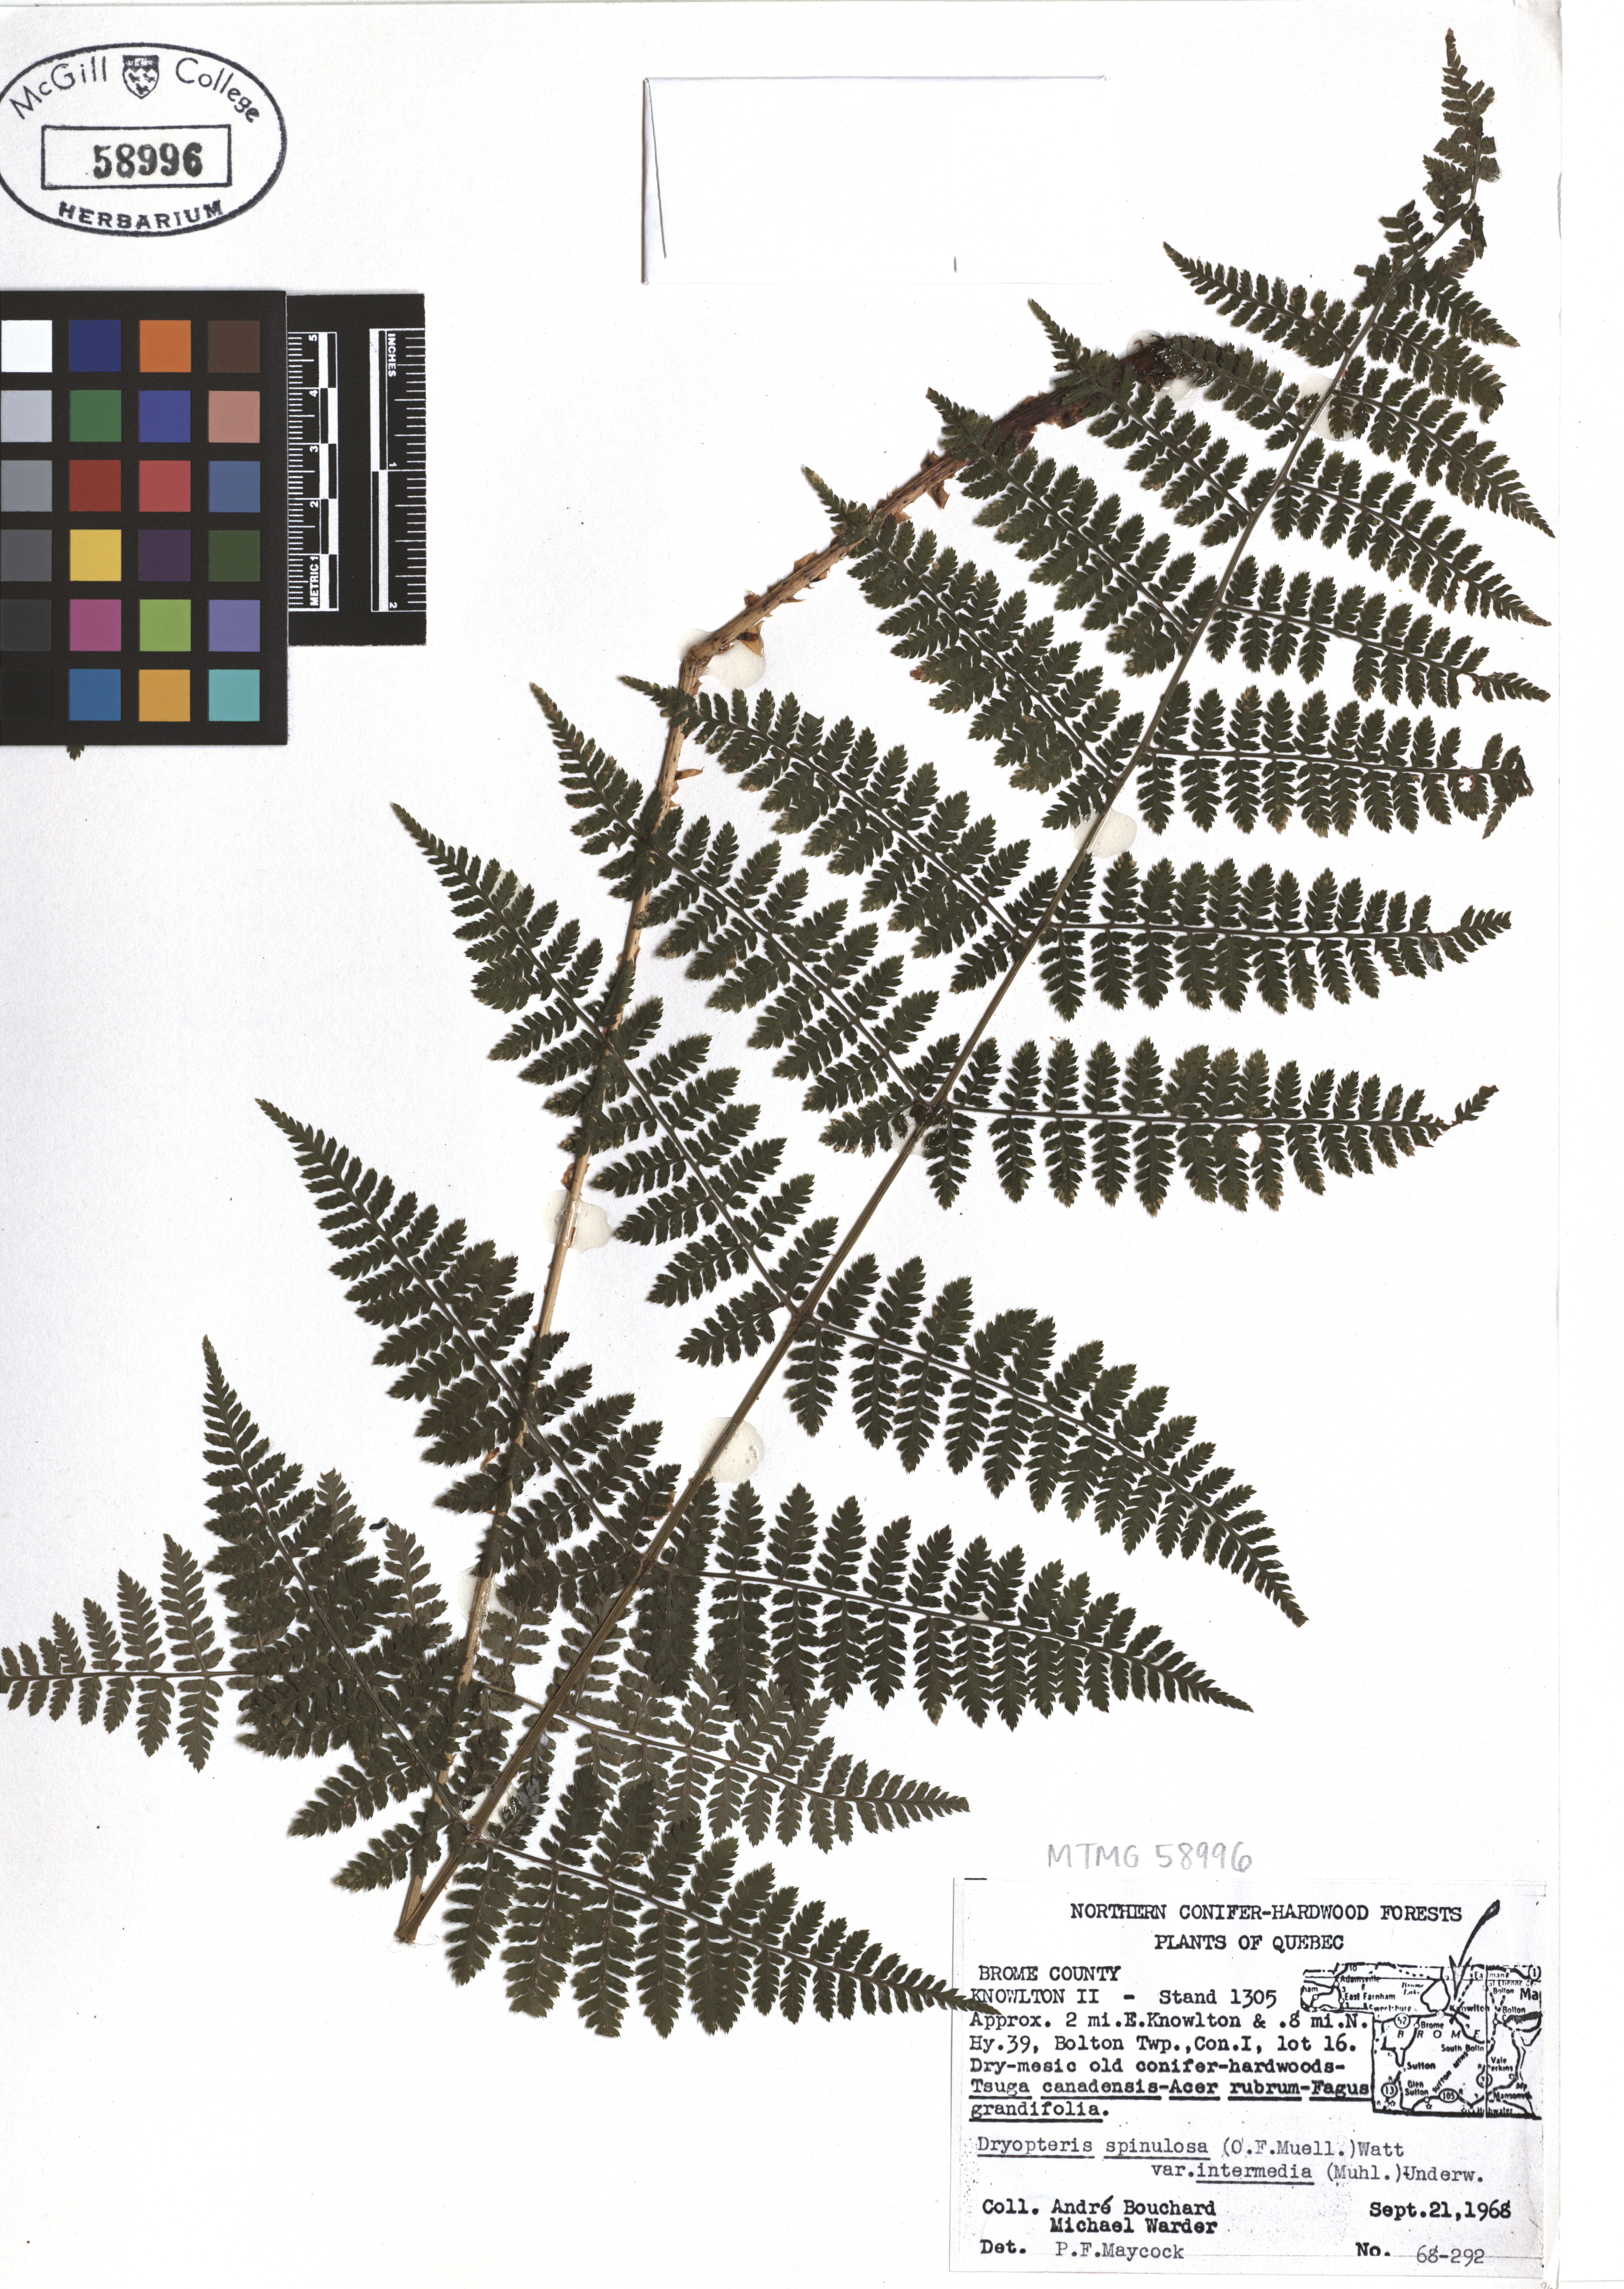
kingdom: Plantae
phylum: Tracheophyta
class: Polypodiopsida
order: Polypodiales
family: Dryopteridaceae
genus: Dryopteris
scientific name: Dryopteris intermedia
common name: Evergreen wood fern
